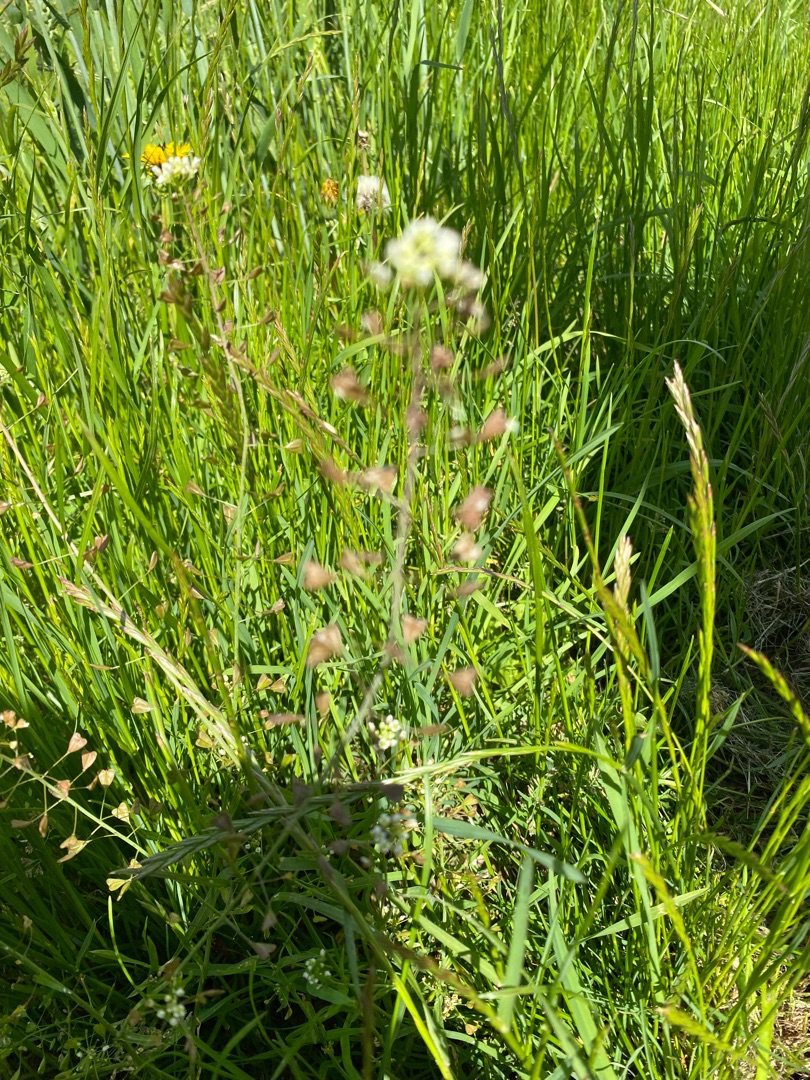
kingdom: Plantae
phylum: Tracheophyta
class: Magnoliopsida
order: Brassicales
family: Brassicaceae
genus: Capsella
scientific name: Capsella bursa-pastoris
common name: Hyrdetaske
